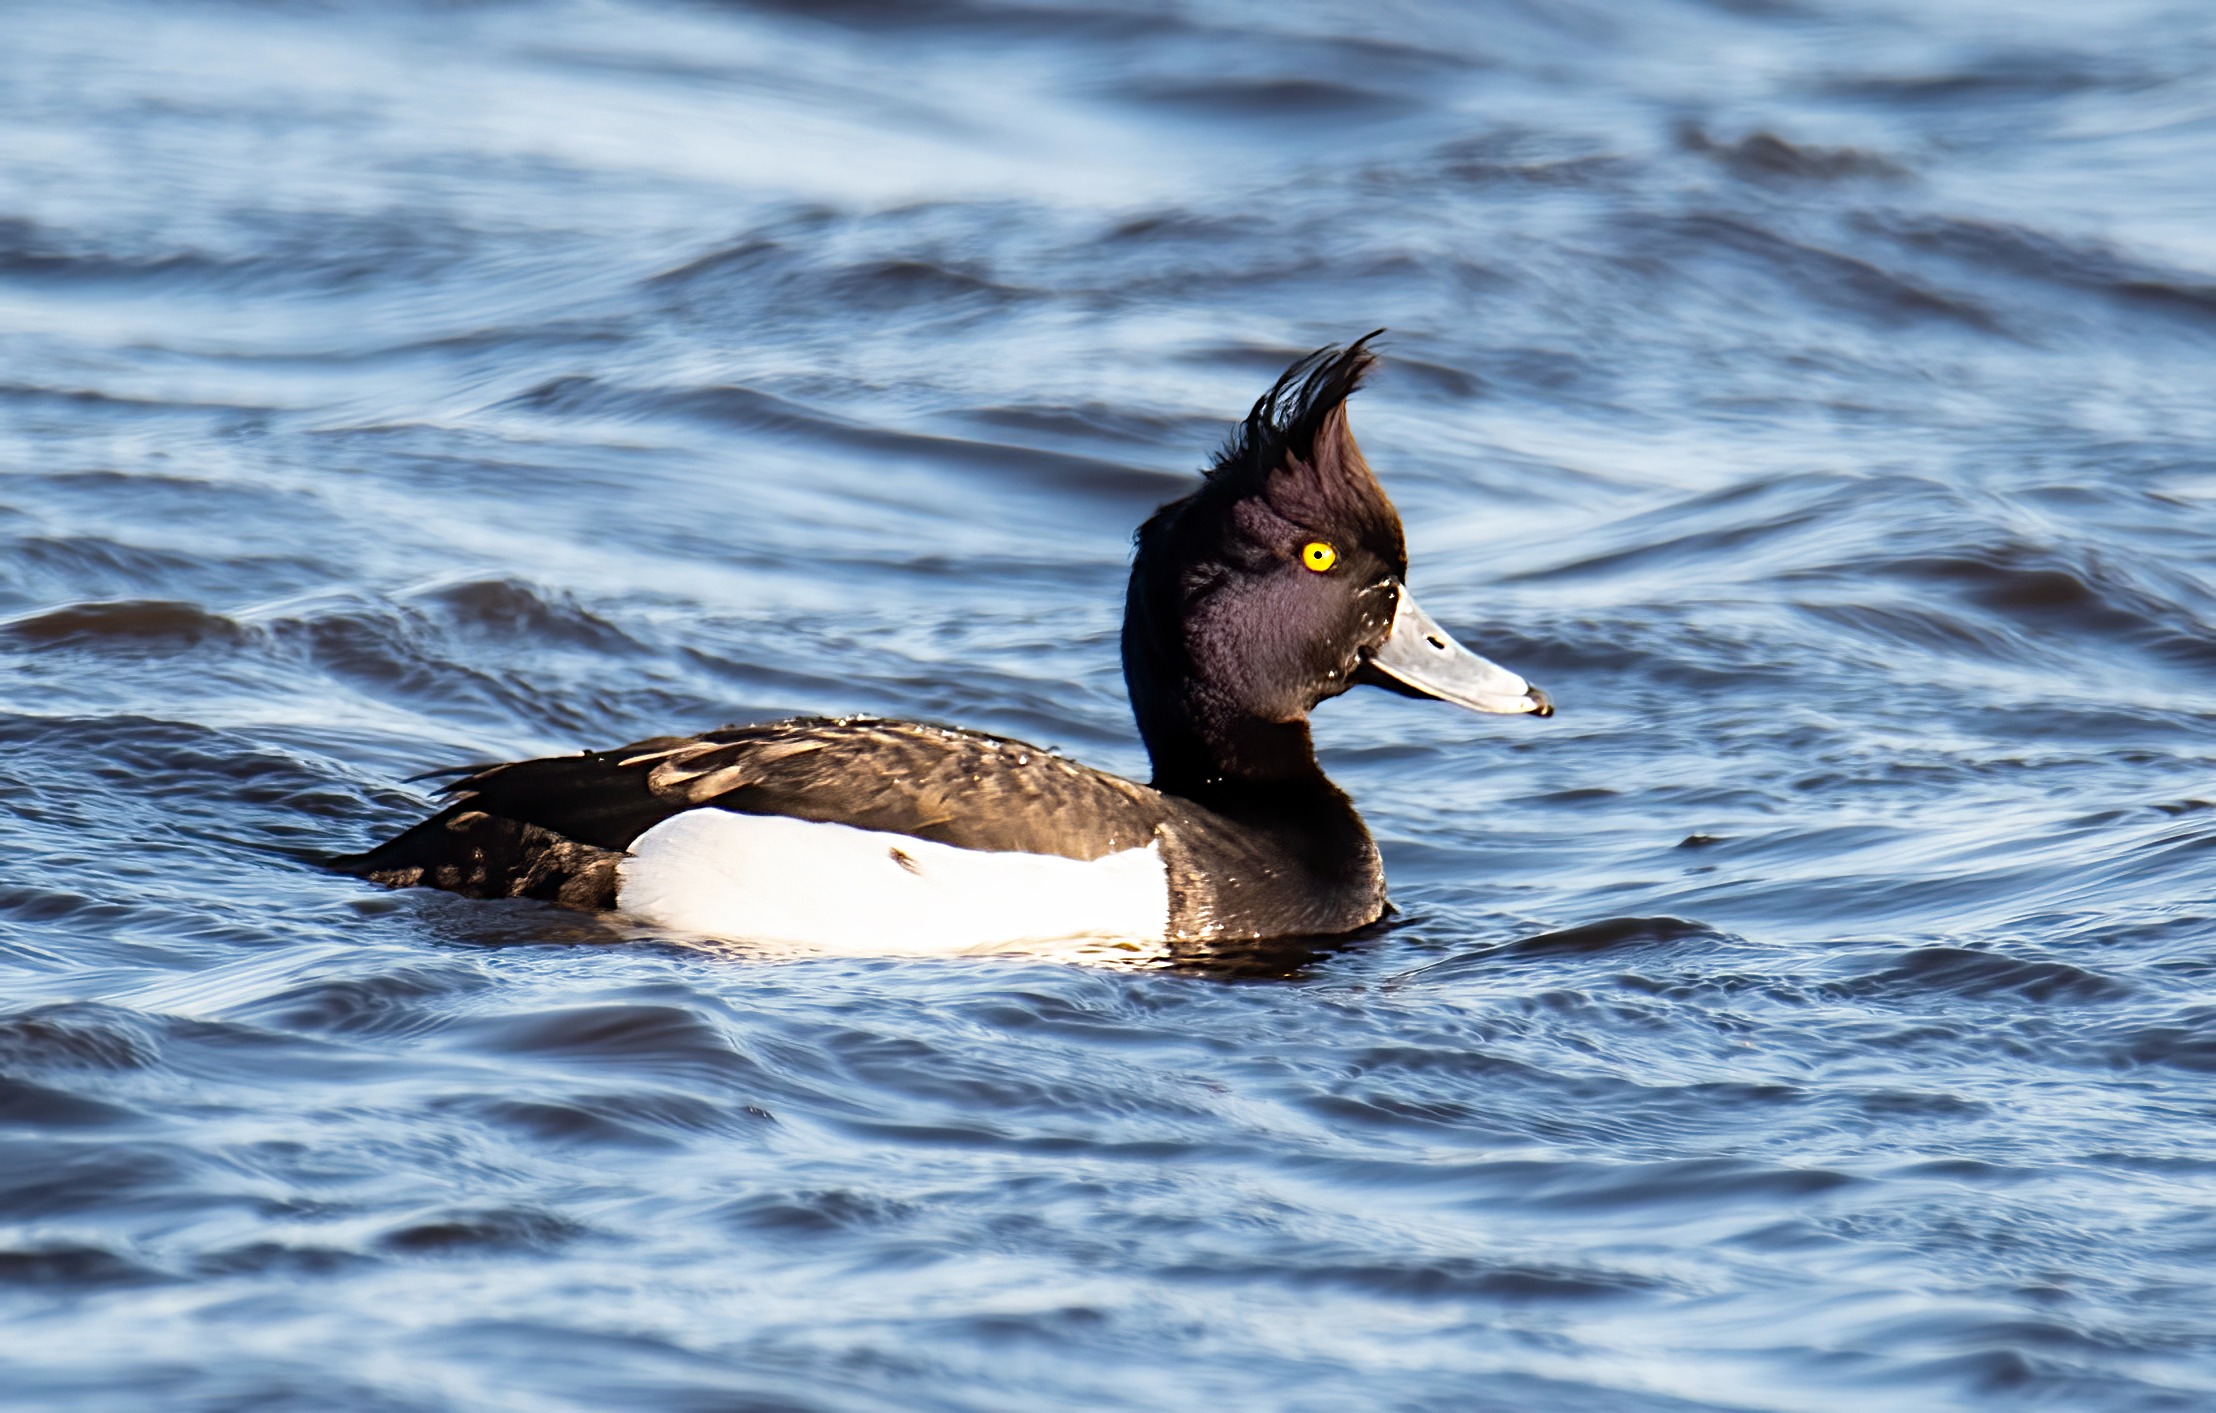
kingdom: Animalia
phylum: Chordata
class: Aves
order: Anseriformes
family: Anatidae
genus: Aythya
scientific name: Aythya fuligula
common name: Troldand
